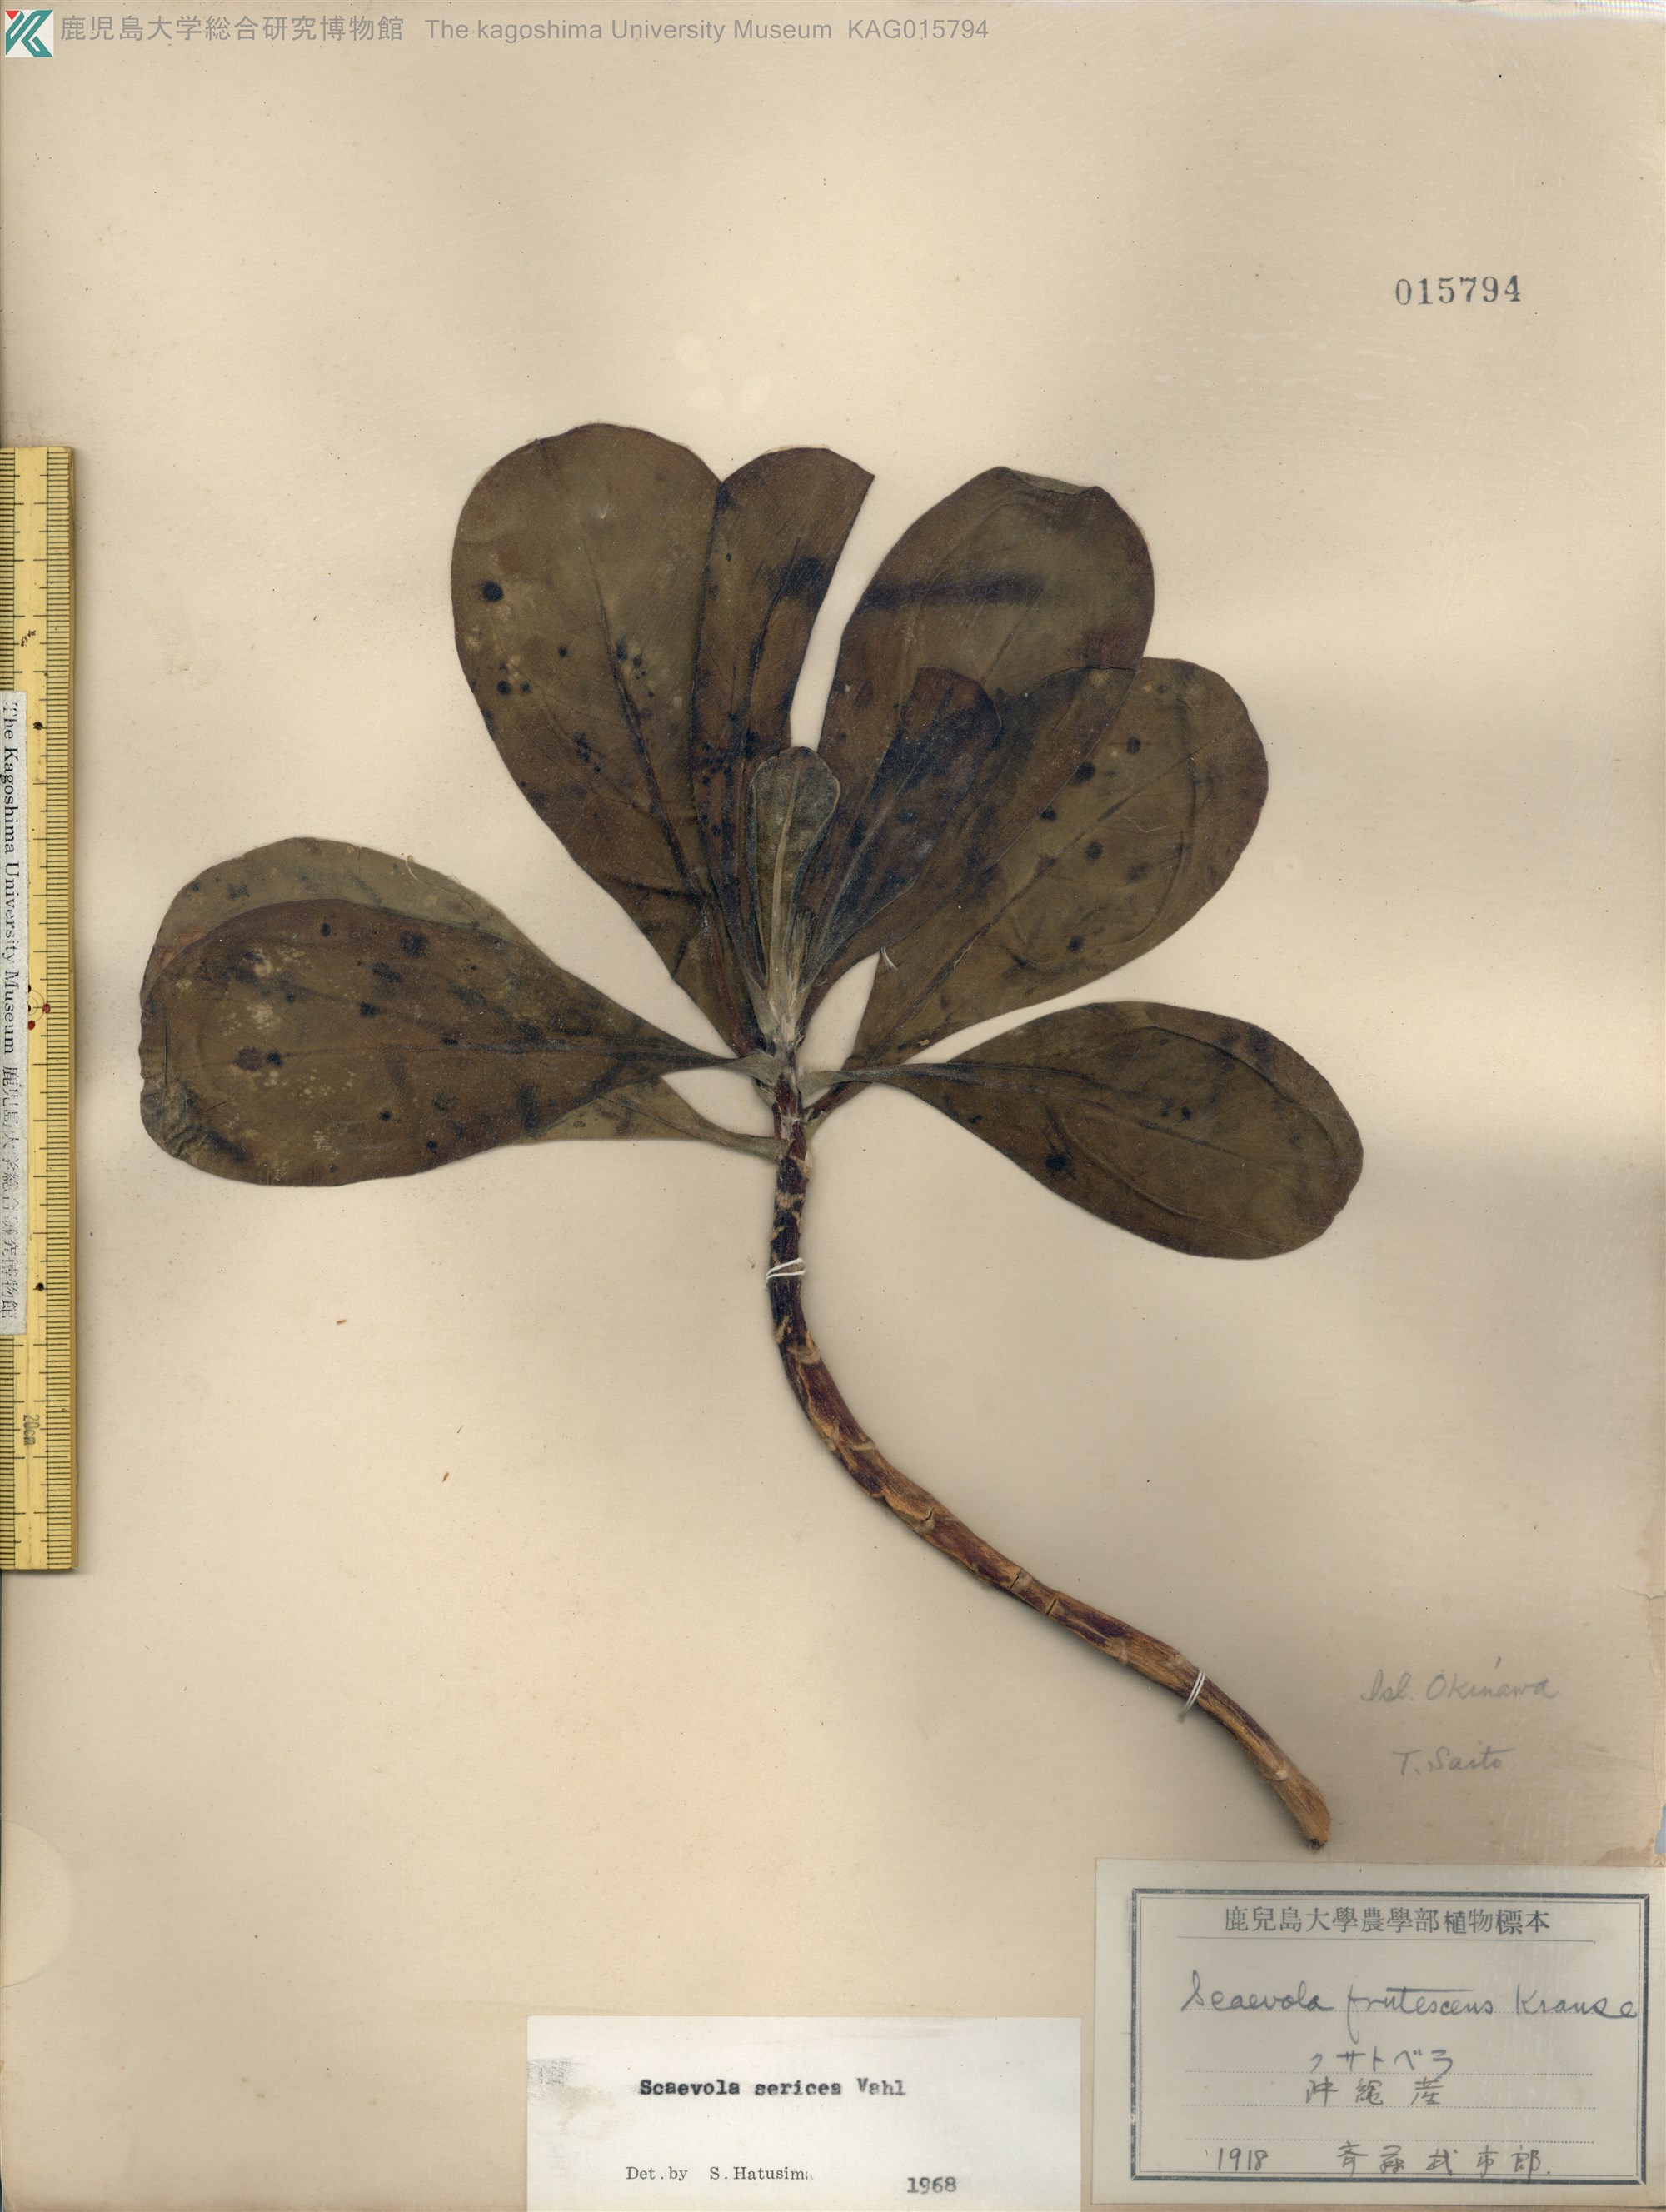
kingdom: Plantae
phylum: Tracheophyta
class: Magnoliopsida
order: Asterales
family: Goodeniaceae
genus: Scaevola
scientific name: Scaevola taccada
